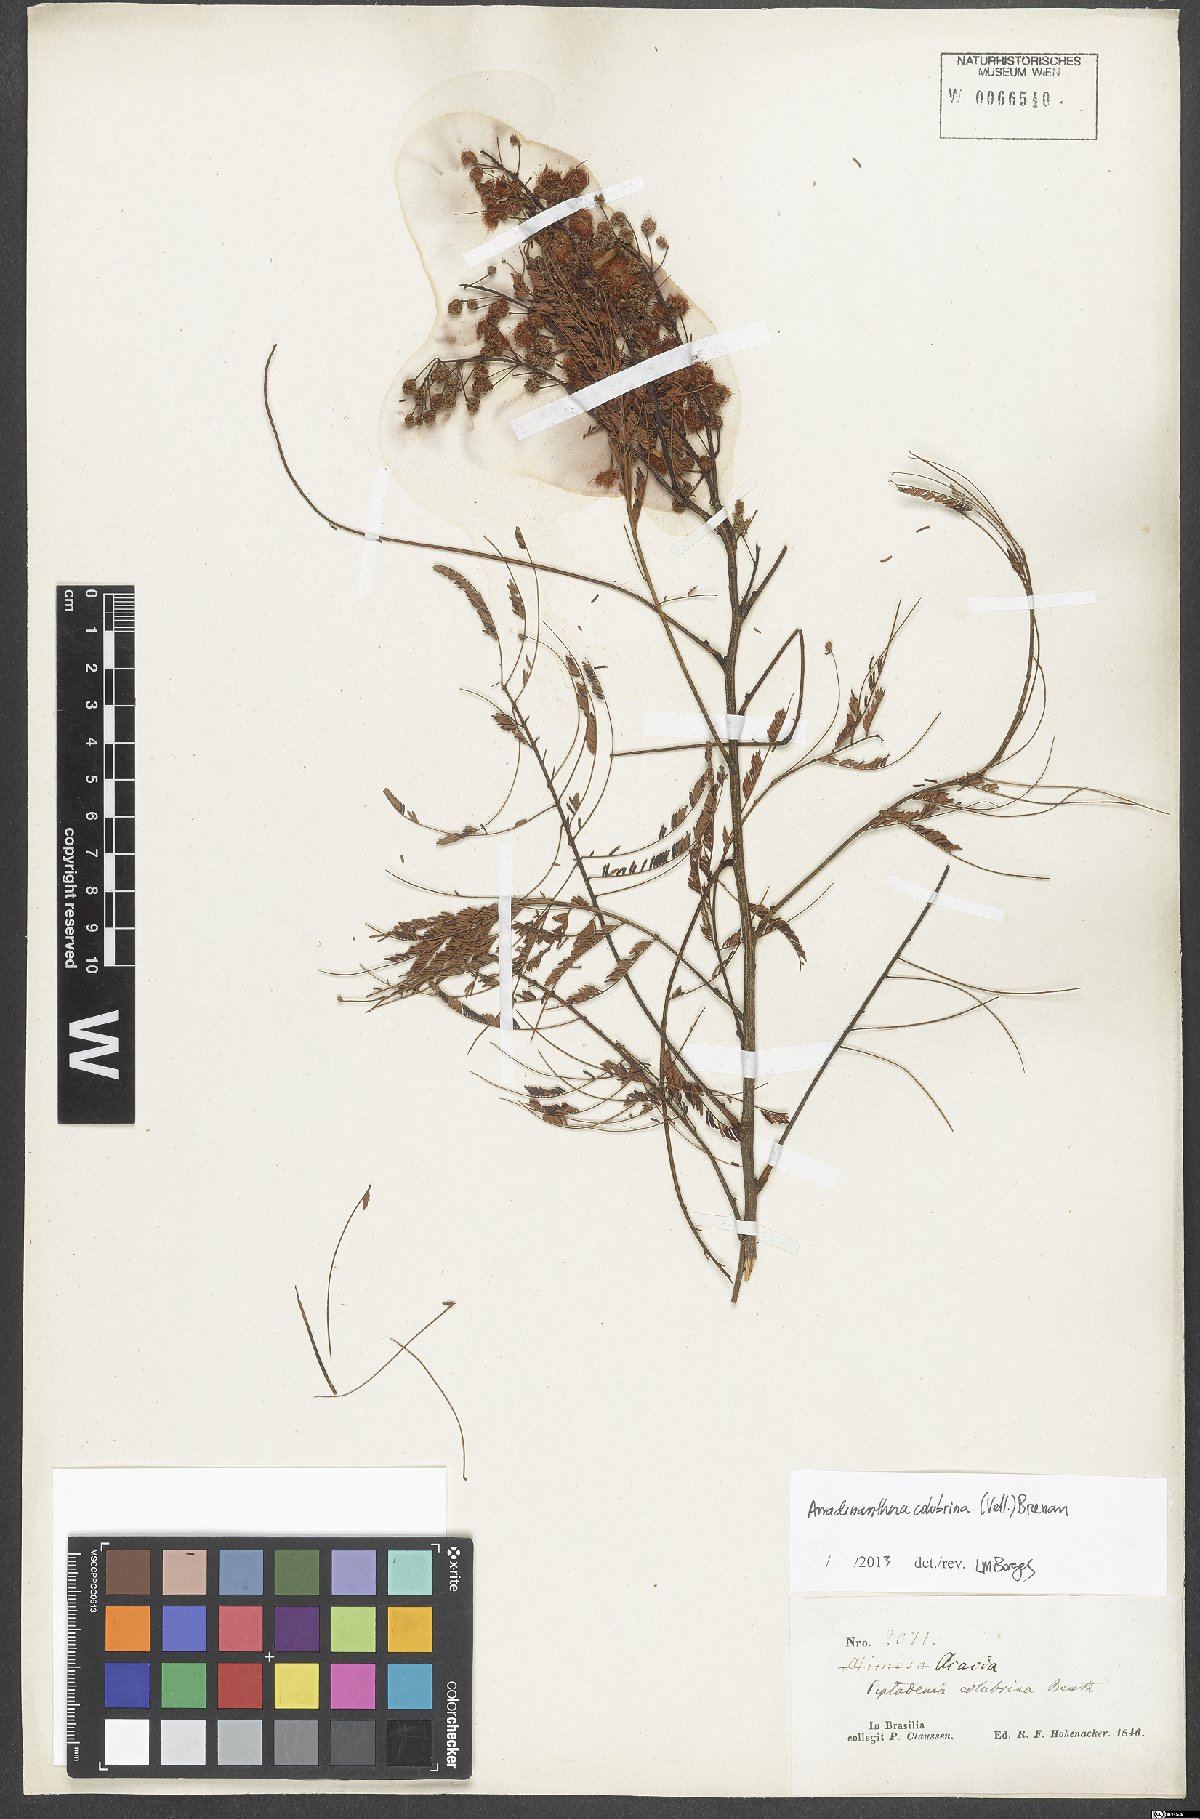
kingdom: Plantae
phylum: Tracheophyta
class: Magnoliopsida
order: Fabales
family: Fabaceae
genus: Anadenanthera
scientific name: Anadenanthera colubrina
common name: Curupay
